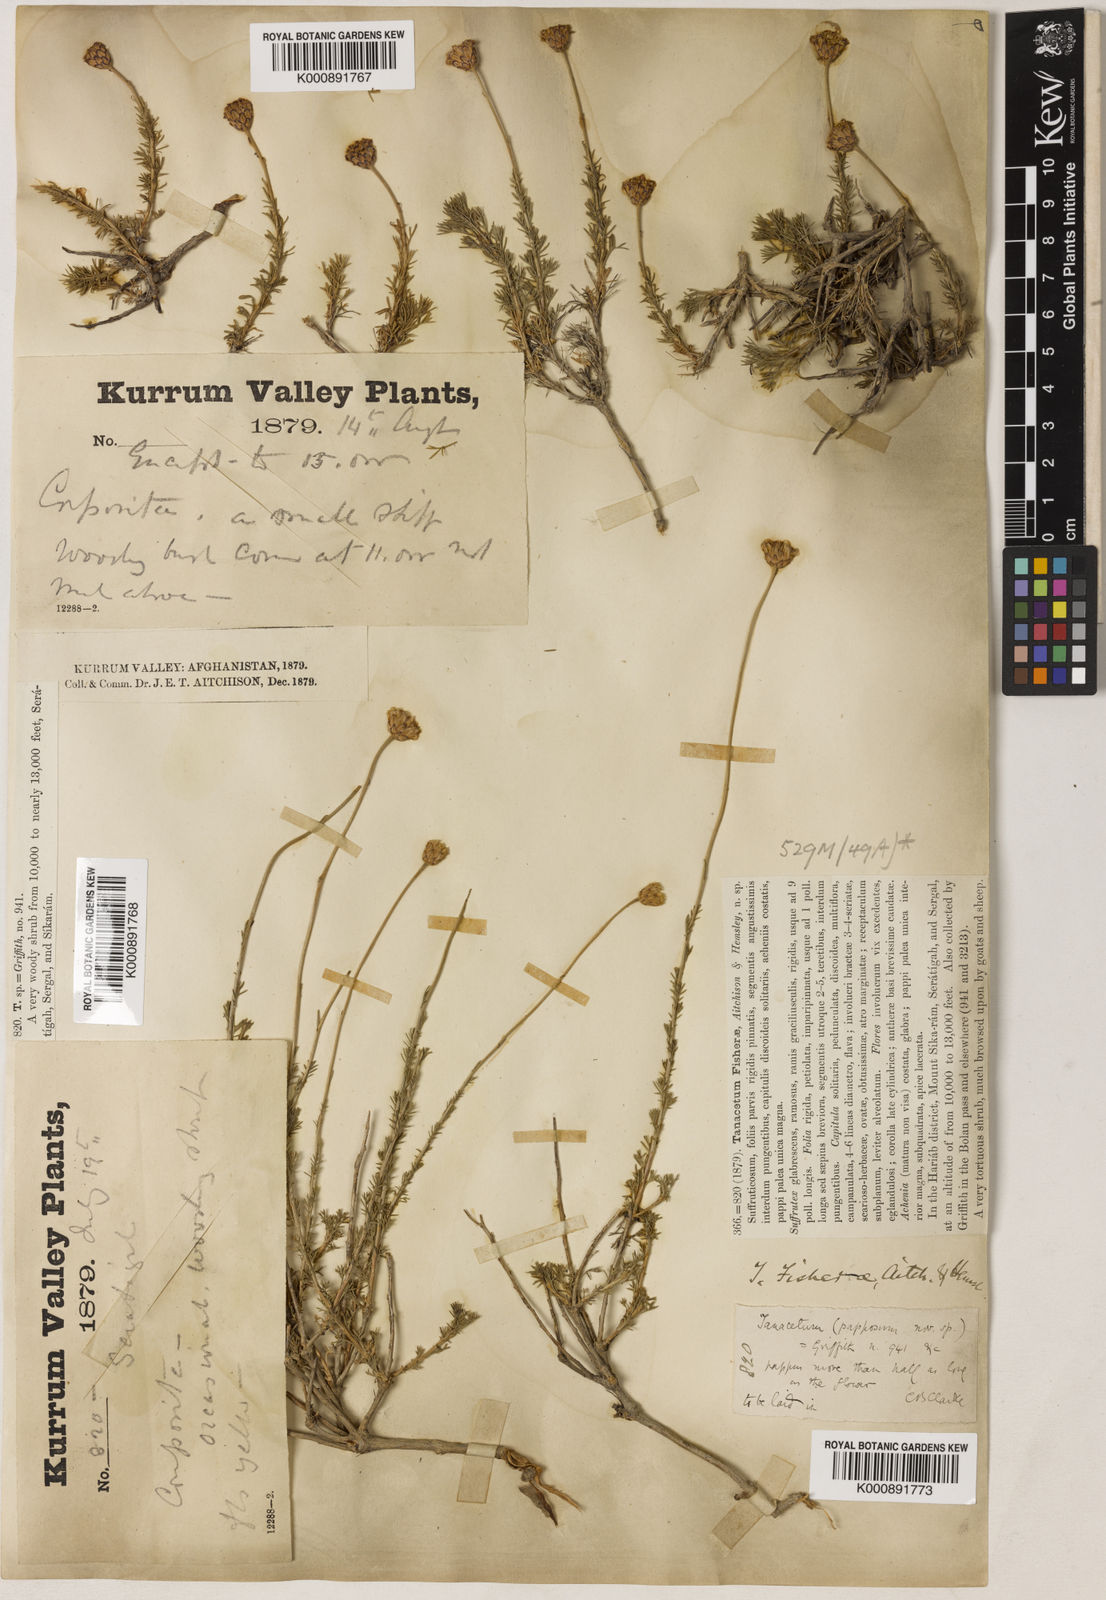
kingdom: Plantae
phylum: Tracheophyta
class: Magnoliopsida
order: Asterales
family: Asteraceae
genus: Xylanthemum
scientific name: Xylanthemum fisherae
